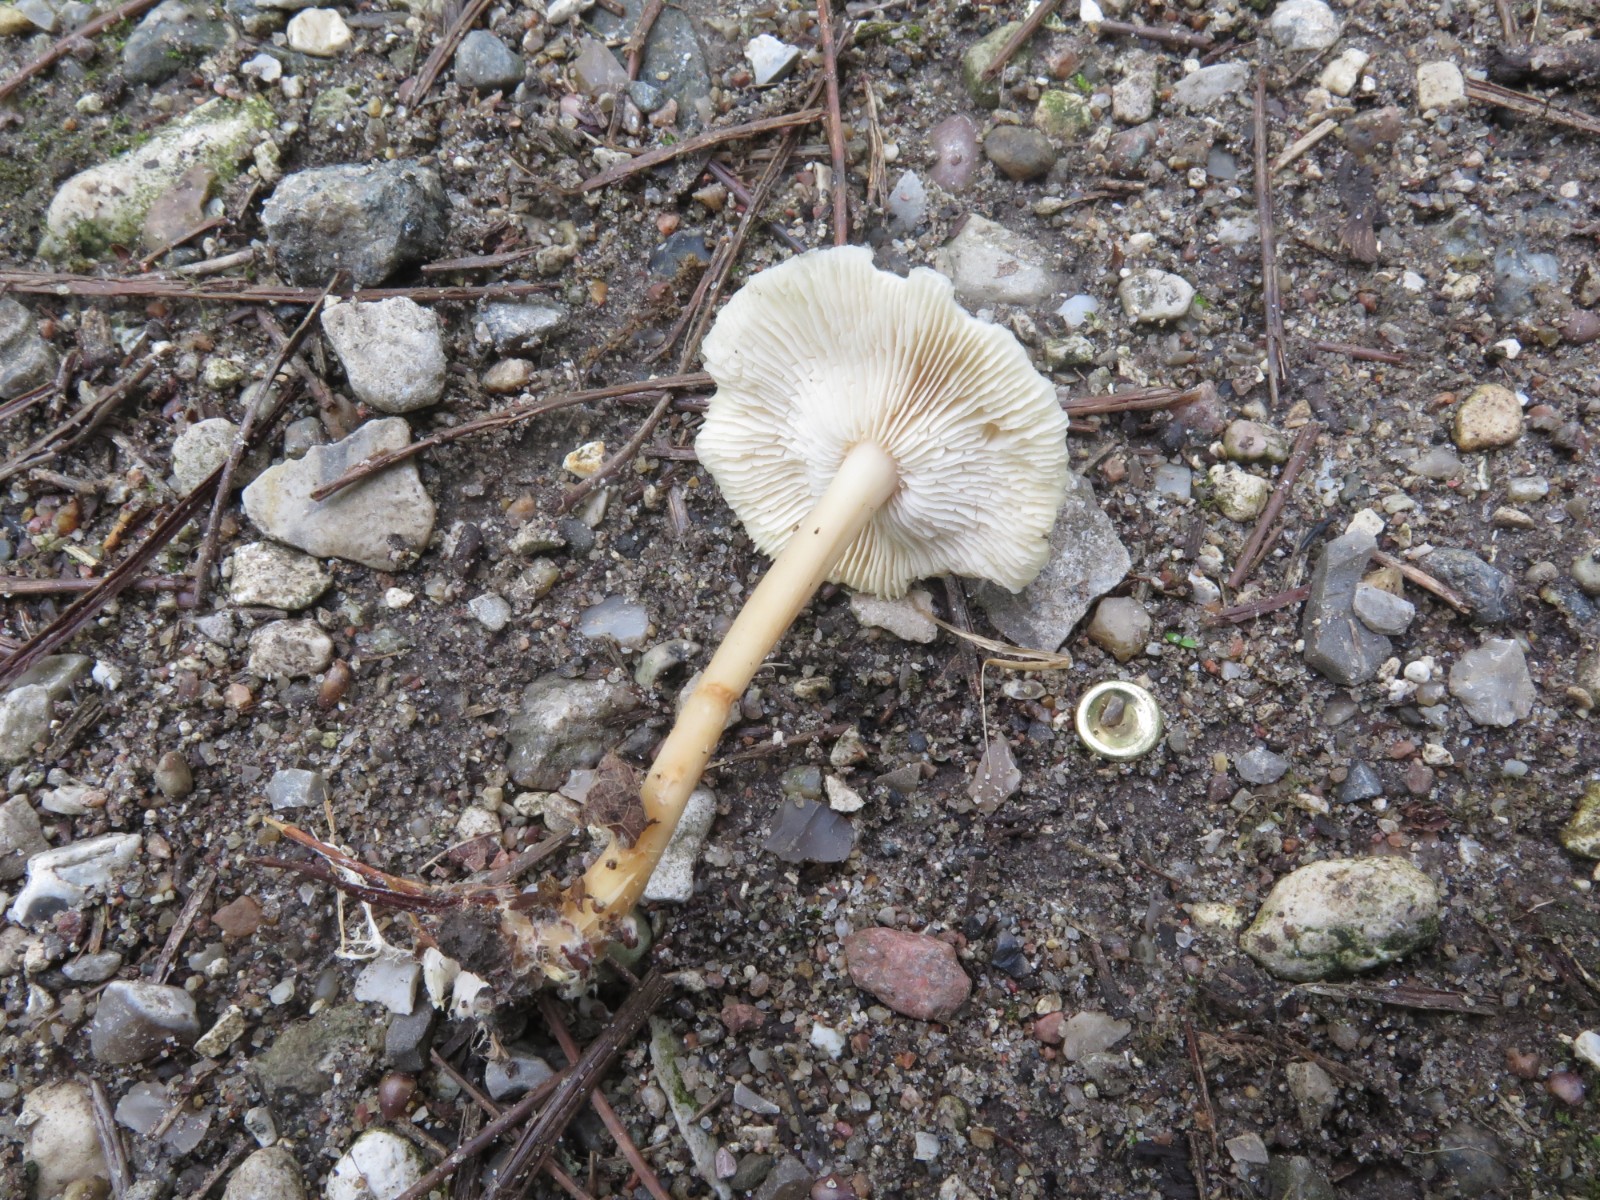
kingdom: Fungi
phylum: Basidiomycota
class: Agaricomycetes
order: Agaricales
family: Omphalotaceae
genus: Gymnopus
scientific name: Gymnopus aquosus
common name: bleg fladhat
